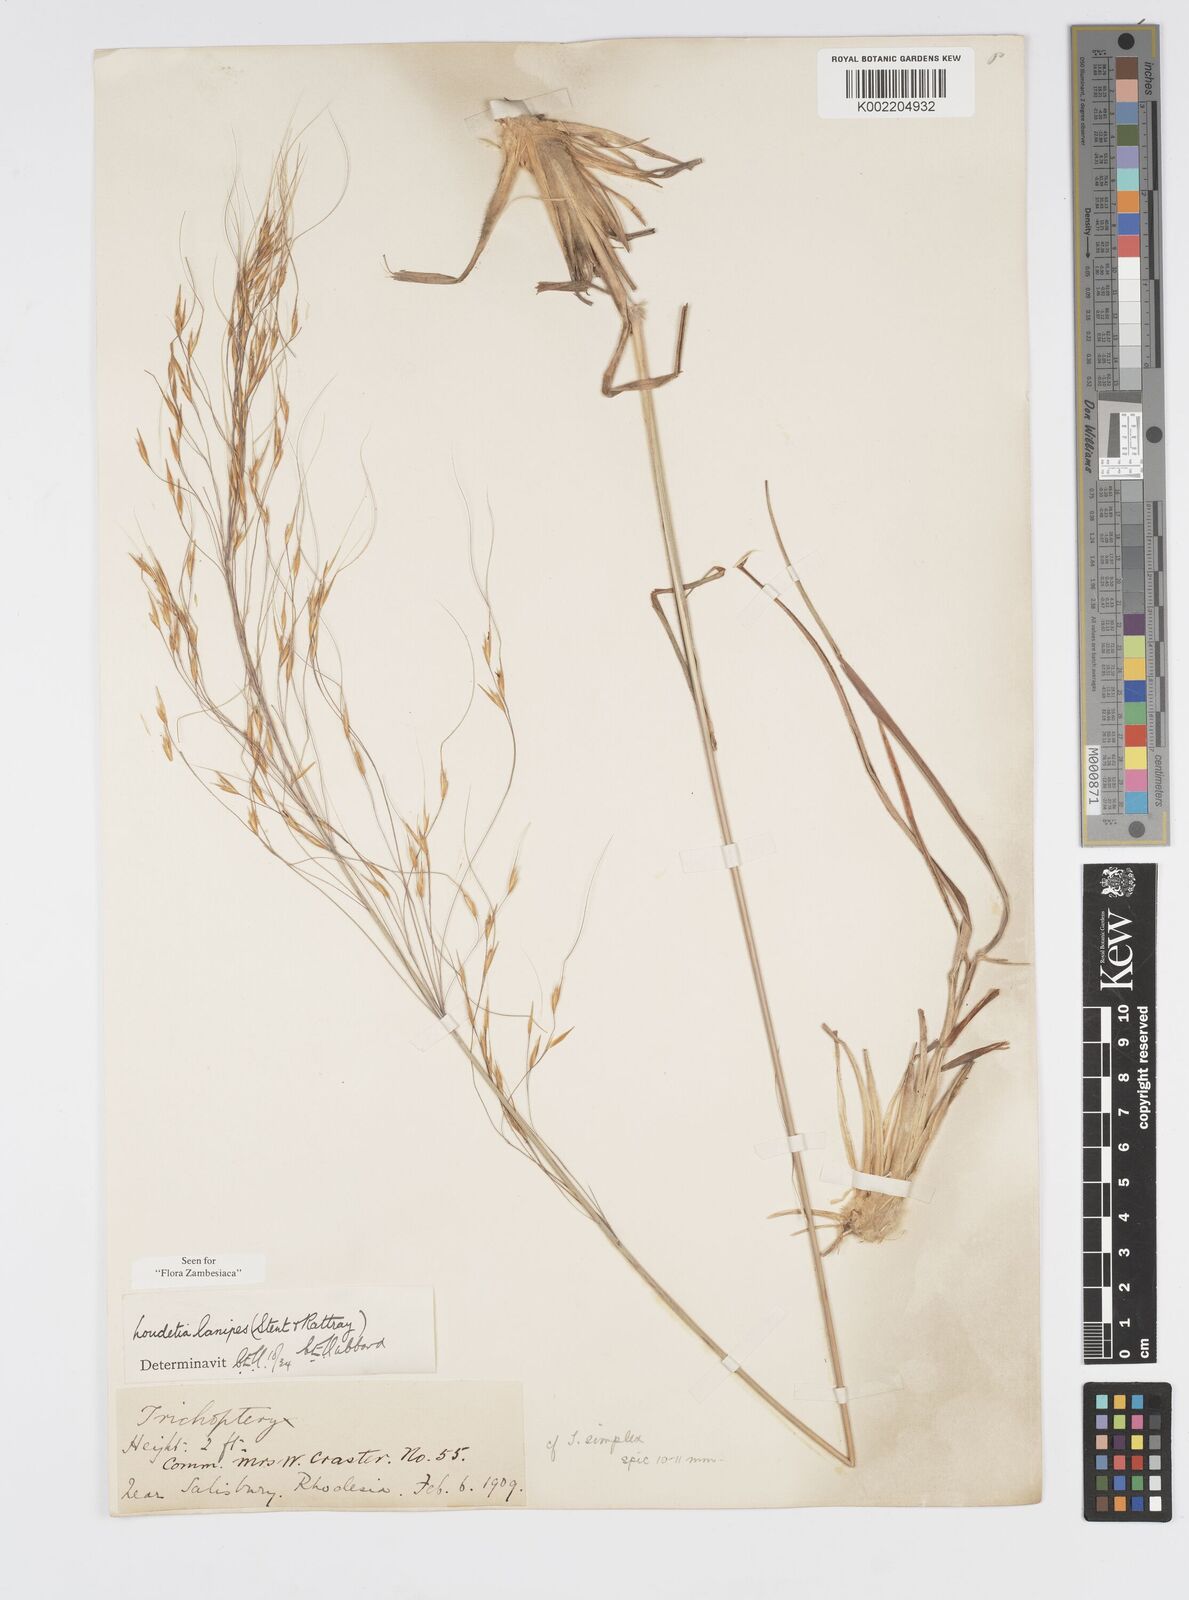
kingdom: Plantae
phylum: Tracheophyta
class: Liliopsida
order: Poales
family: Poaceae
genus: Loudetia
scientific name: Loudetia lanata
